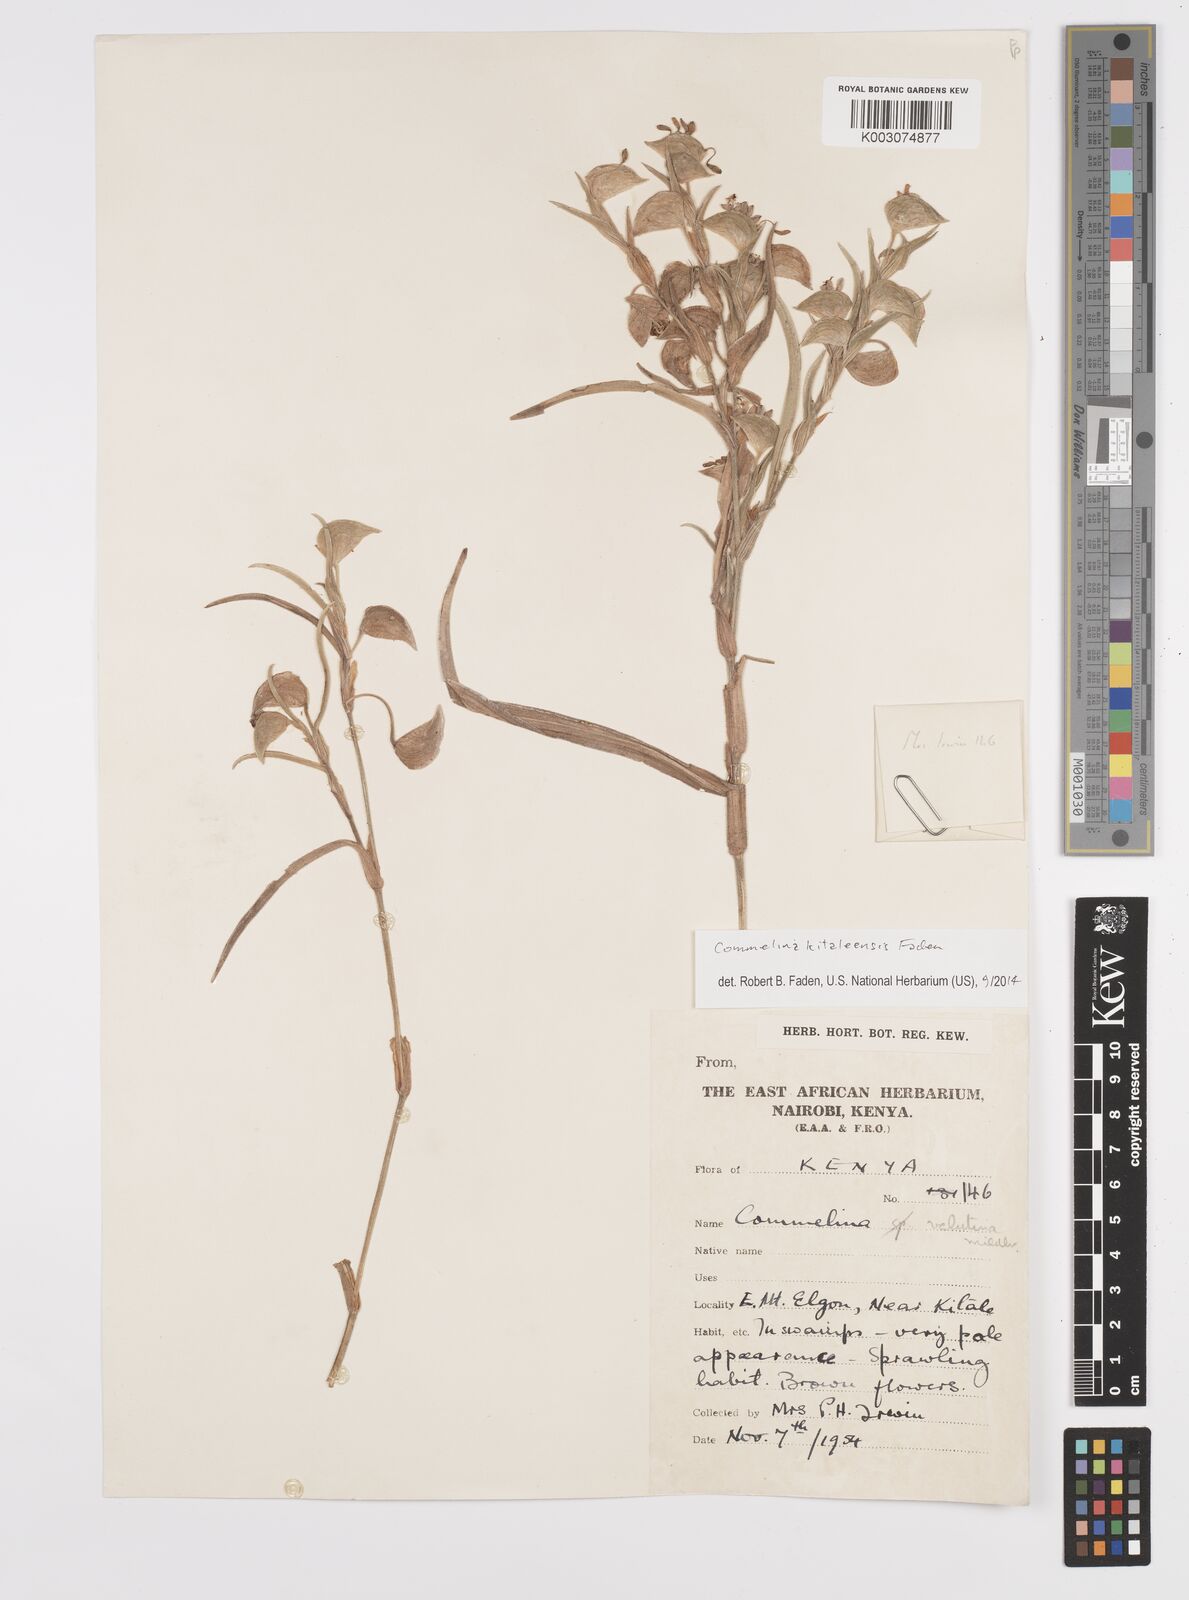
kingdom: Plantae
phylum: Tracheophyta
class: Liliopsida
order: Commelinales
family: Commelinaceae
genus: Commelina
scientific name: Commelina kitaleensis
